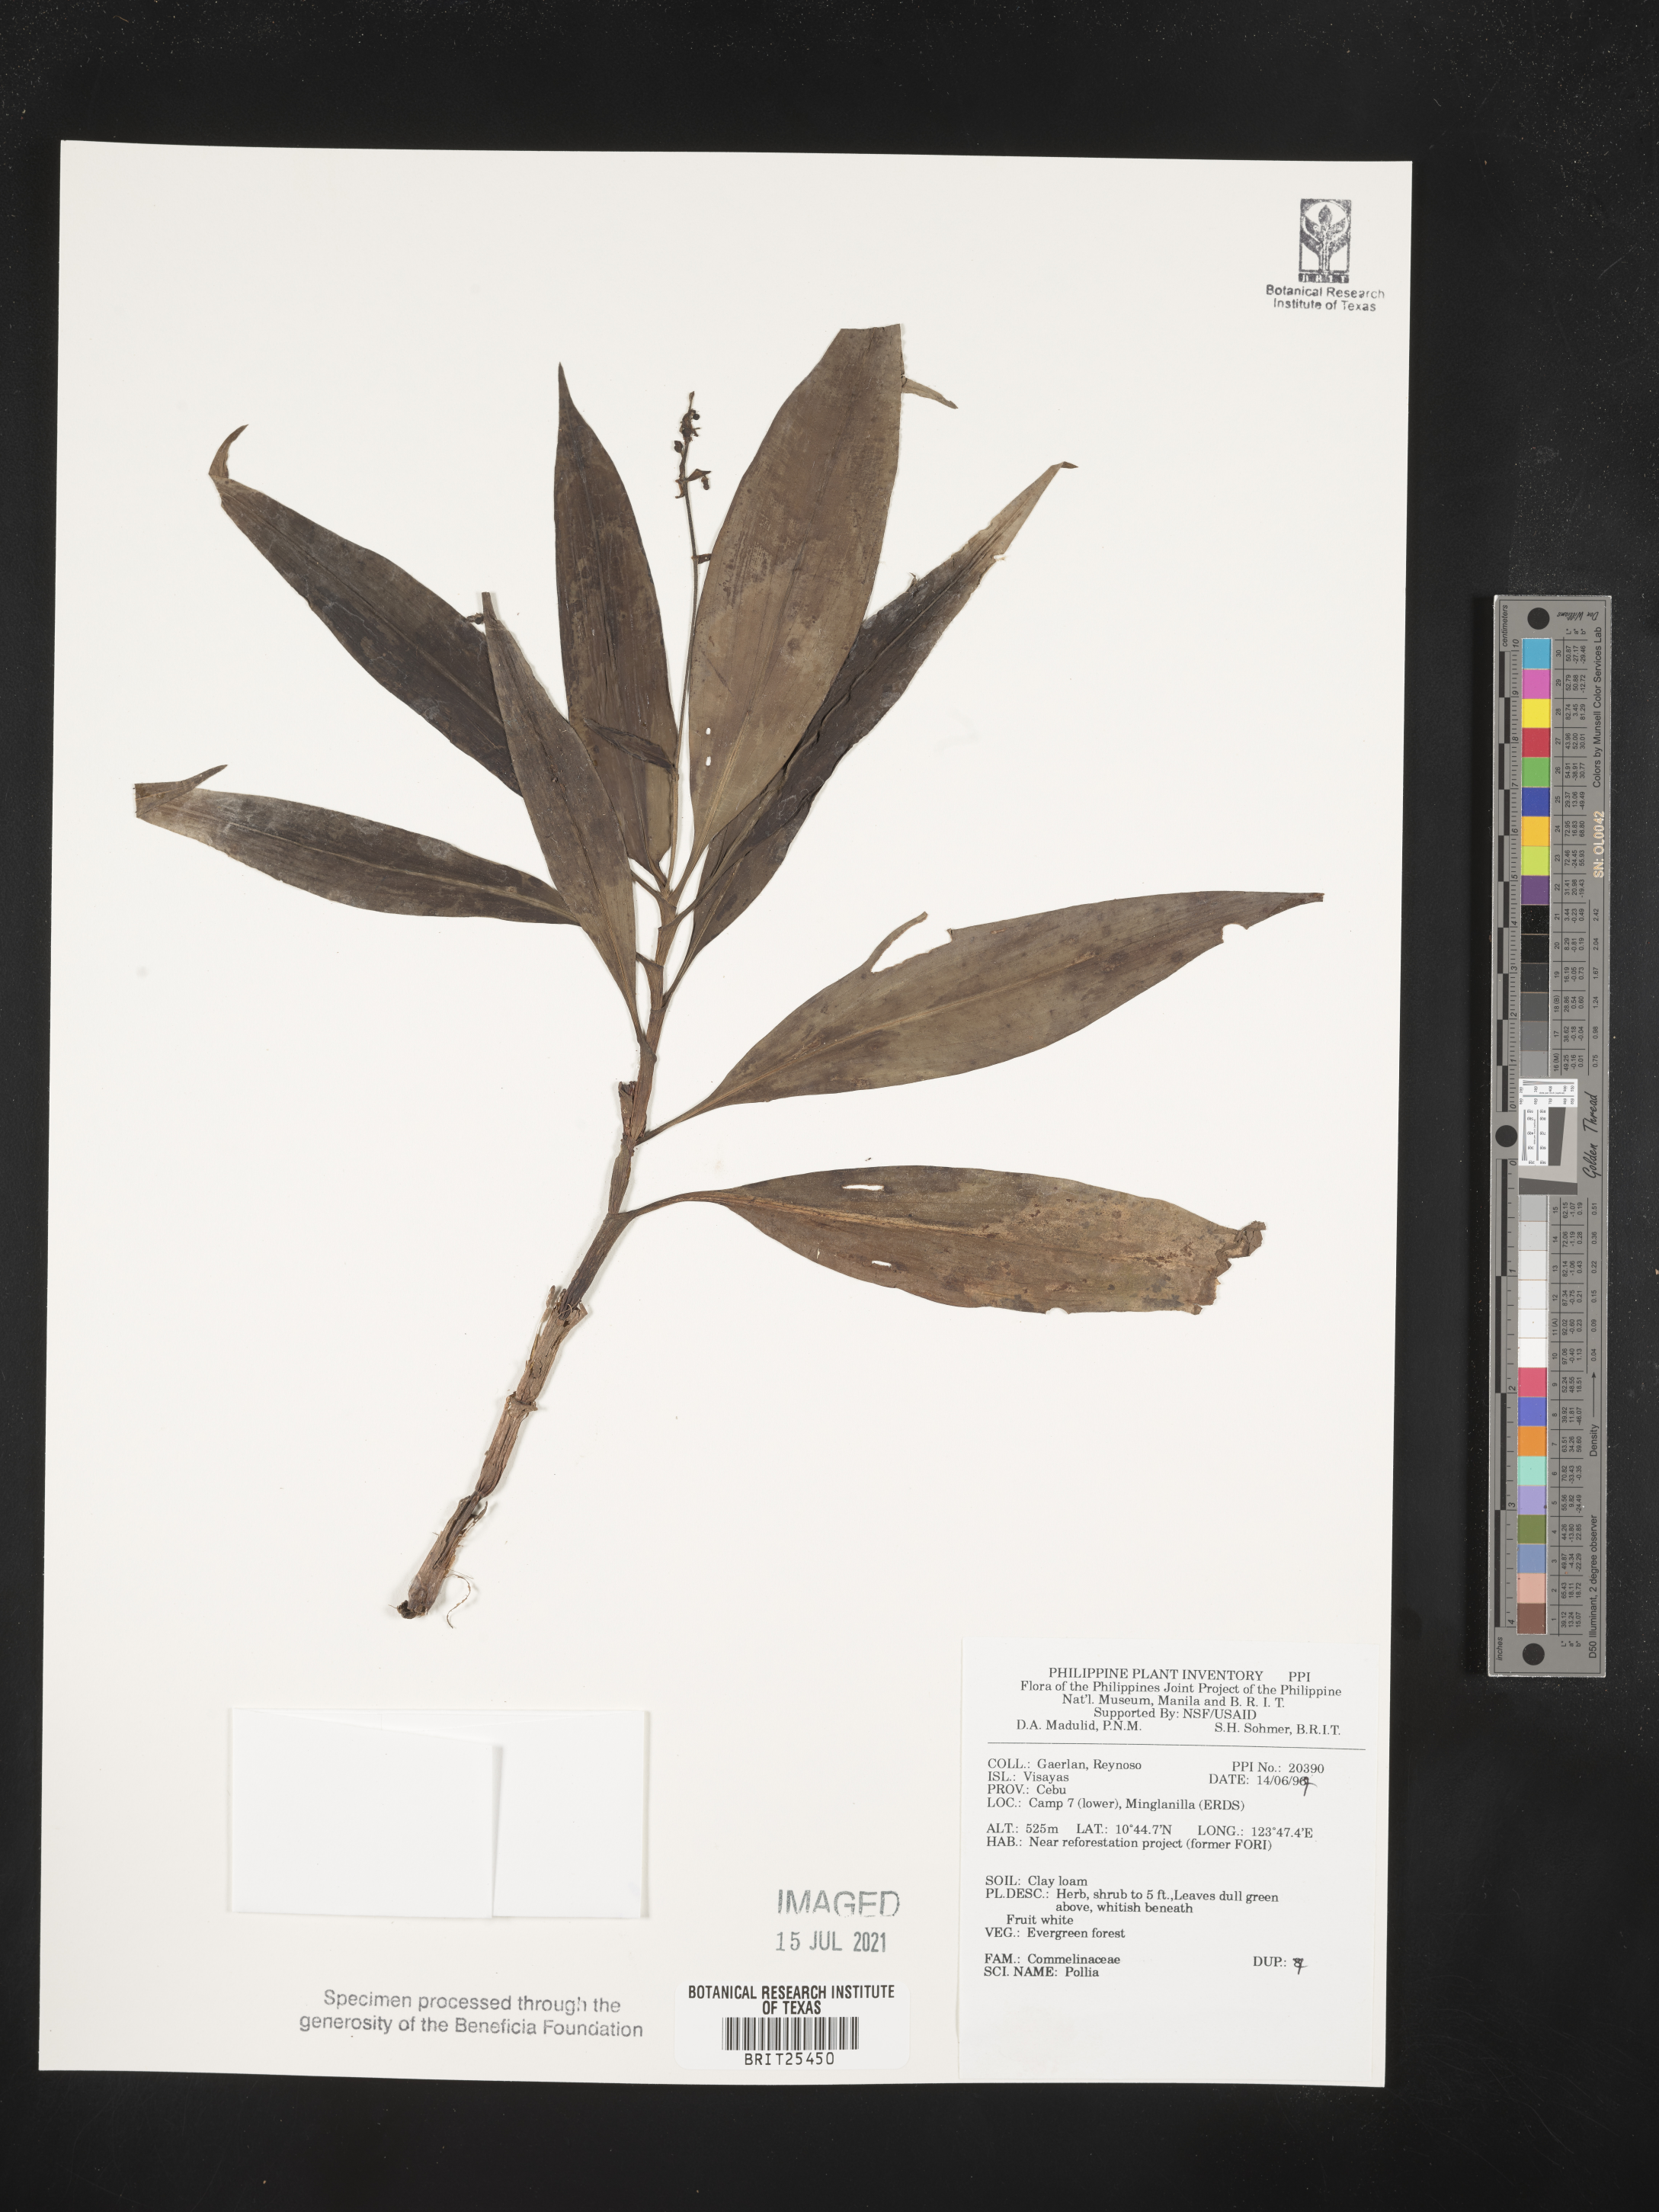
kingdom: Plantae
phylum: Tracheophyta
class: Liliopsida
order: Commelinales
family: Commelinaceae
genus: Pollia
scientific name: Pollia
